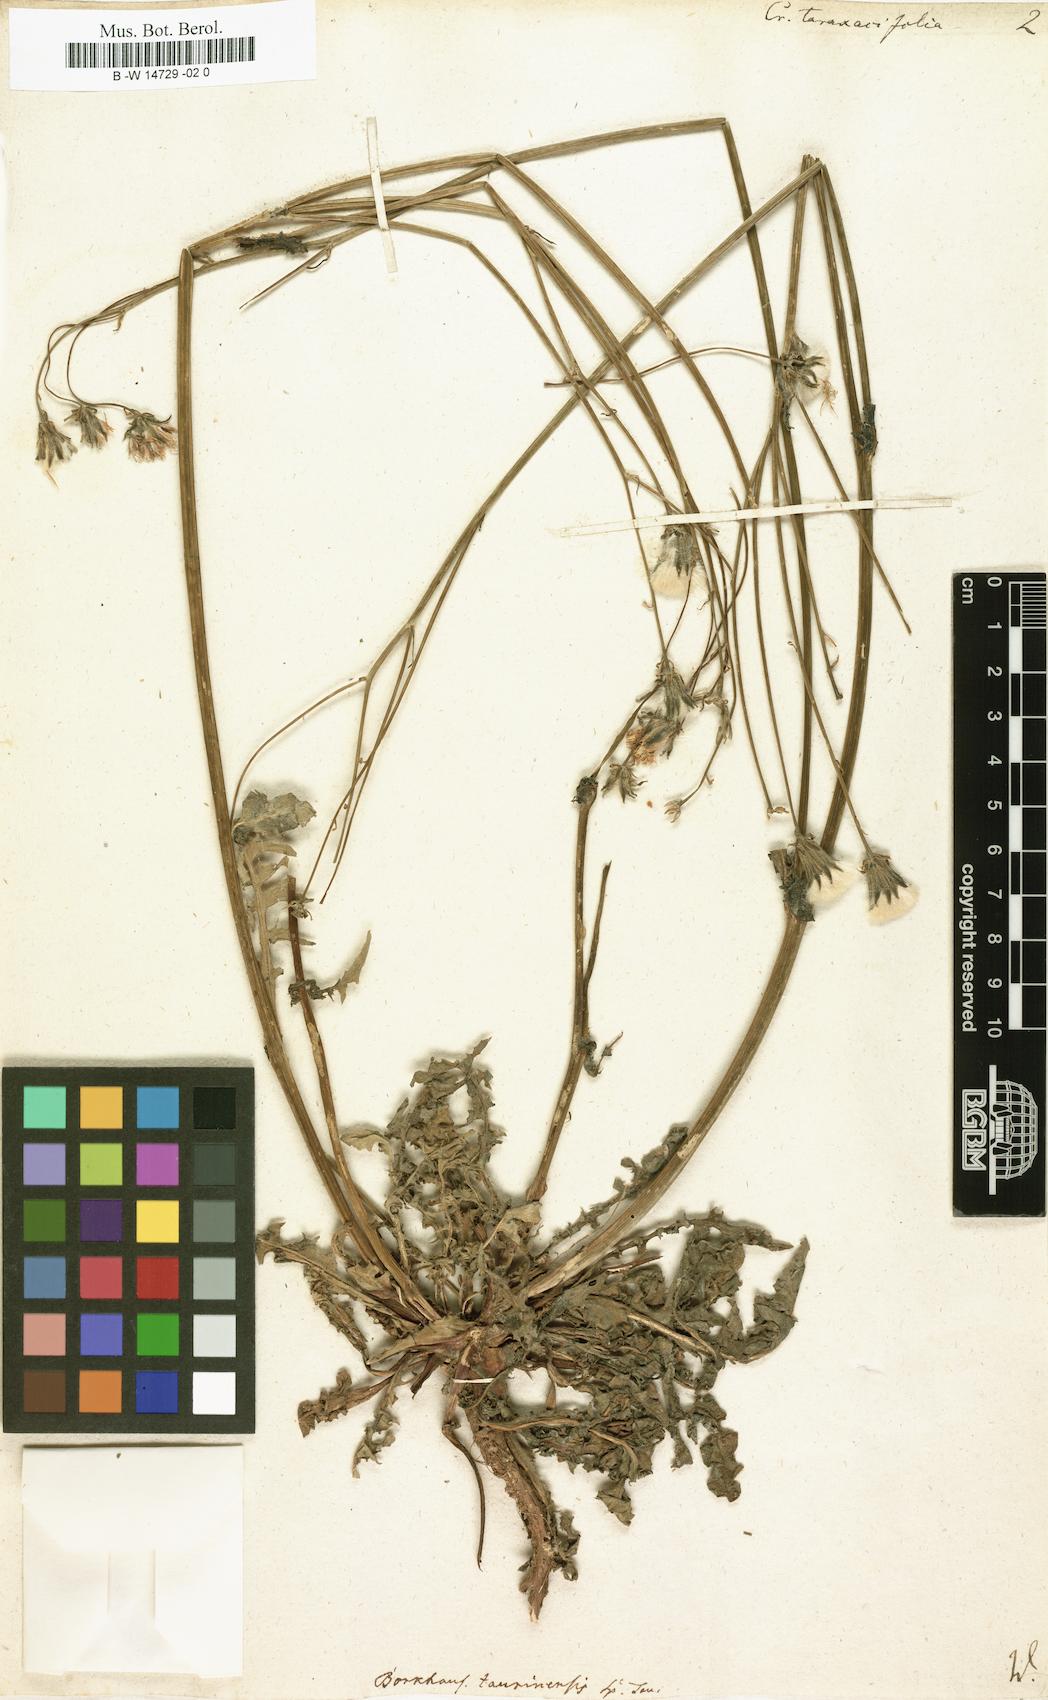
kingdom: Plantae
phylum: Tracheophyta
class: Magnoliopsida
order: Asterales
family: Asteraceae
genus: Crepis
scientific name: Crepis vesicaria
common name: Beaked hawksbeard
